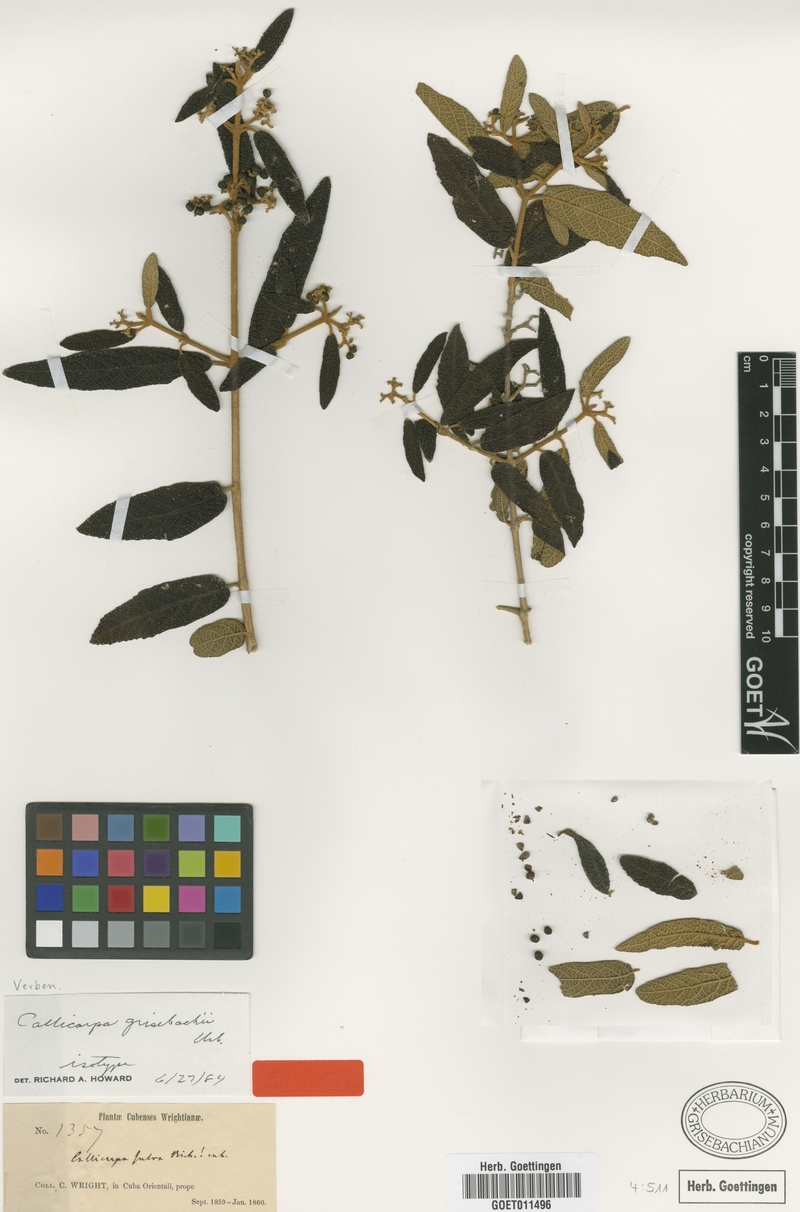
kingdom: Plantae
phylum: Tracheophyta
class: Magnoliopsida
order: Lamiales
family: Lamiaceae
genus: Callicarpa
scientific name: Callicarpa grisebachii
